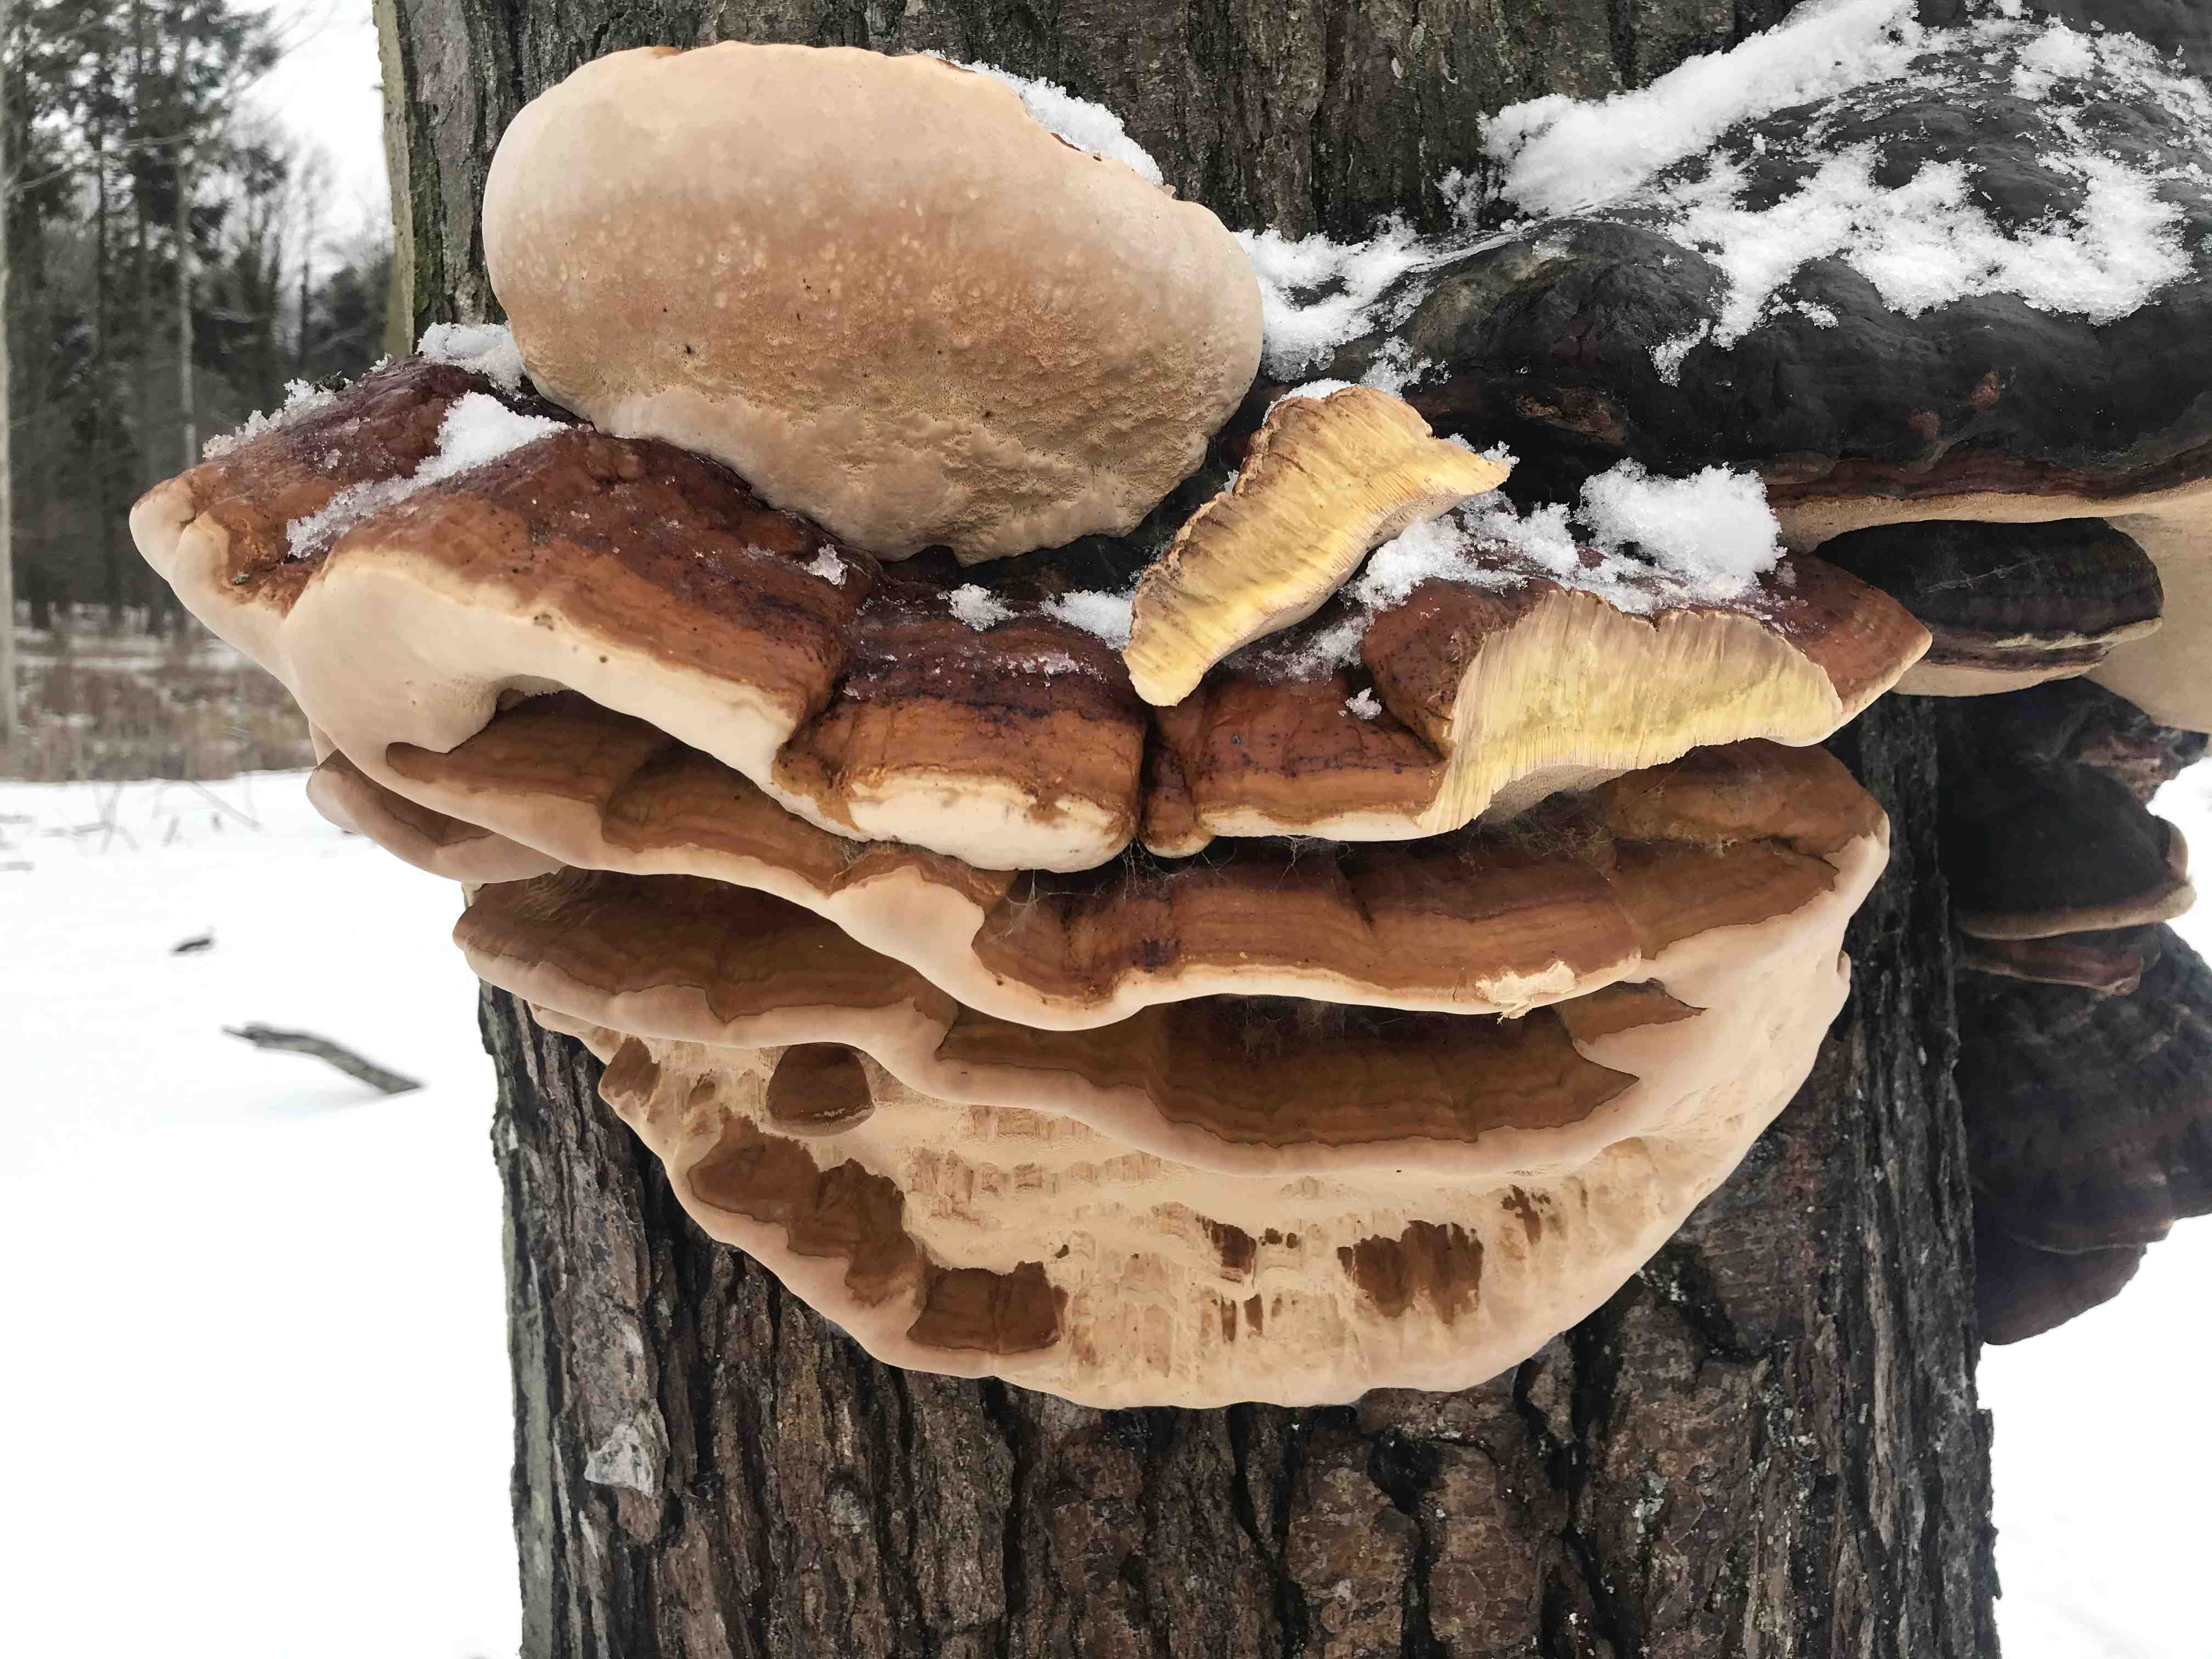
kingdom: Fungi
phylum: Basidiomycota
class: Agaricomycetes
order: Polyporales
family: Fomitopsidaceae
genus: Fomitopsis
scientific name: Fomitopsis pinicola
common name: randbæltet hovporesvamp
